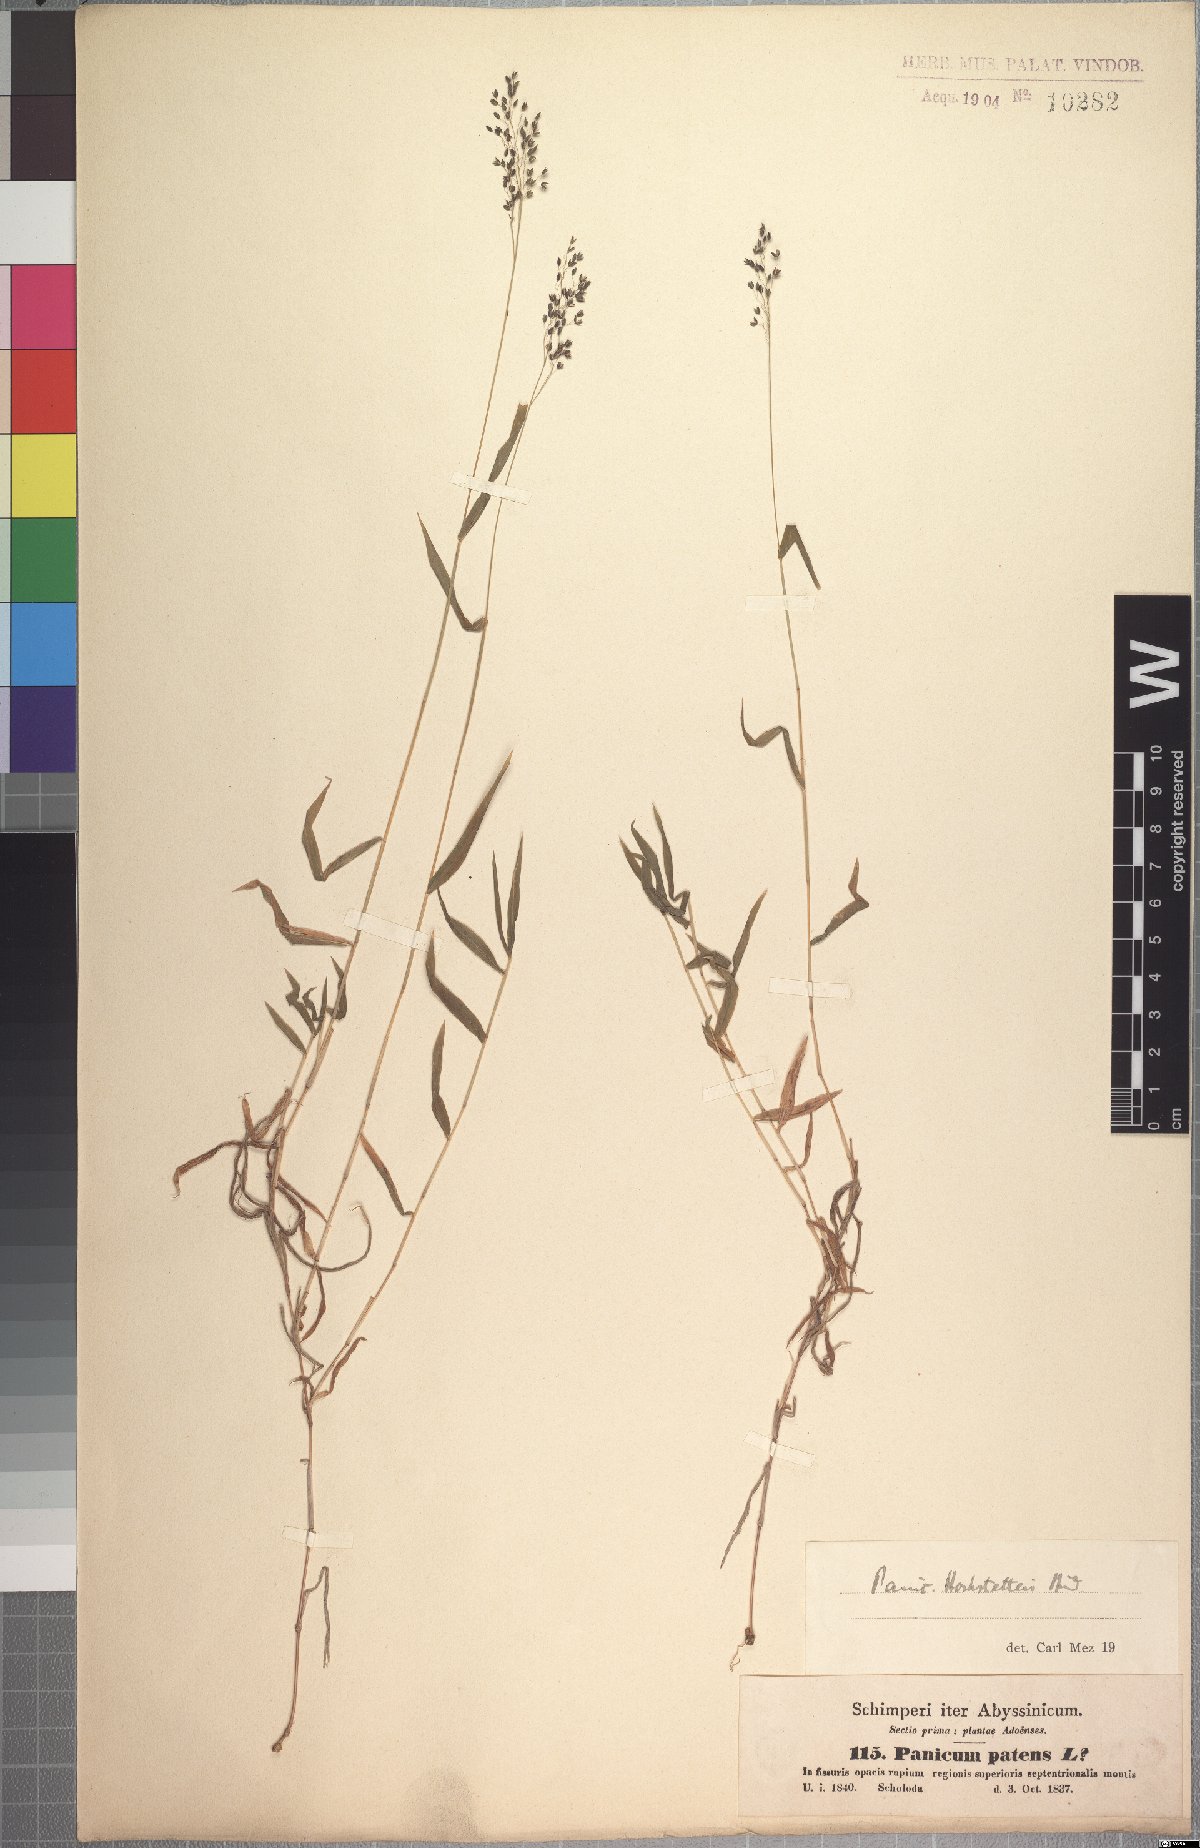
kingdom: Plantae
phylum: Tracheophyta
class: Liliopsida
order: Poales
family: Poaceae
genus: Panicum
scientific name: Panicum hochstetteri
